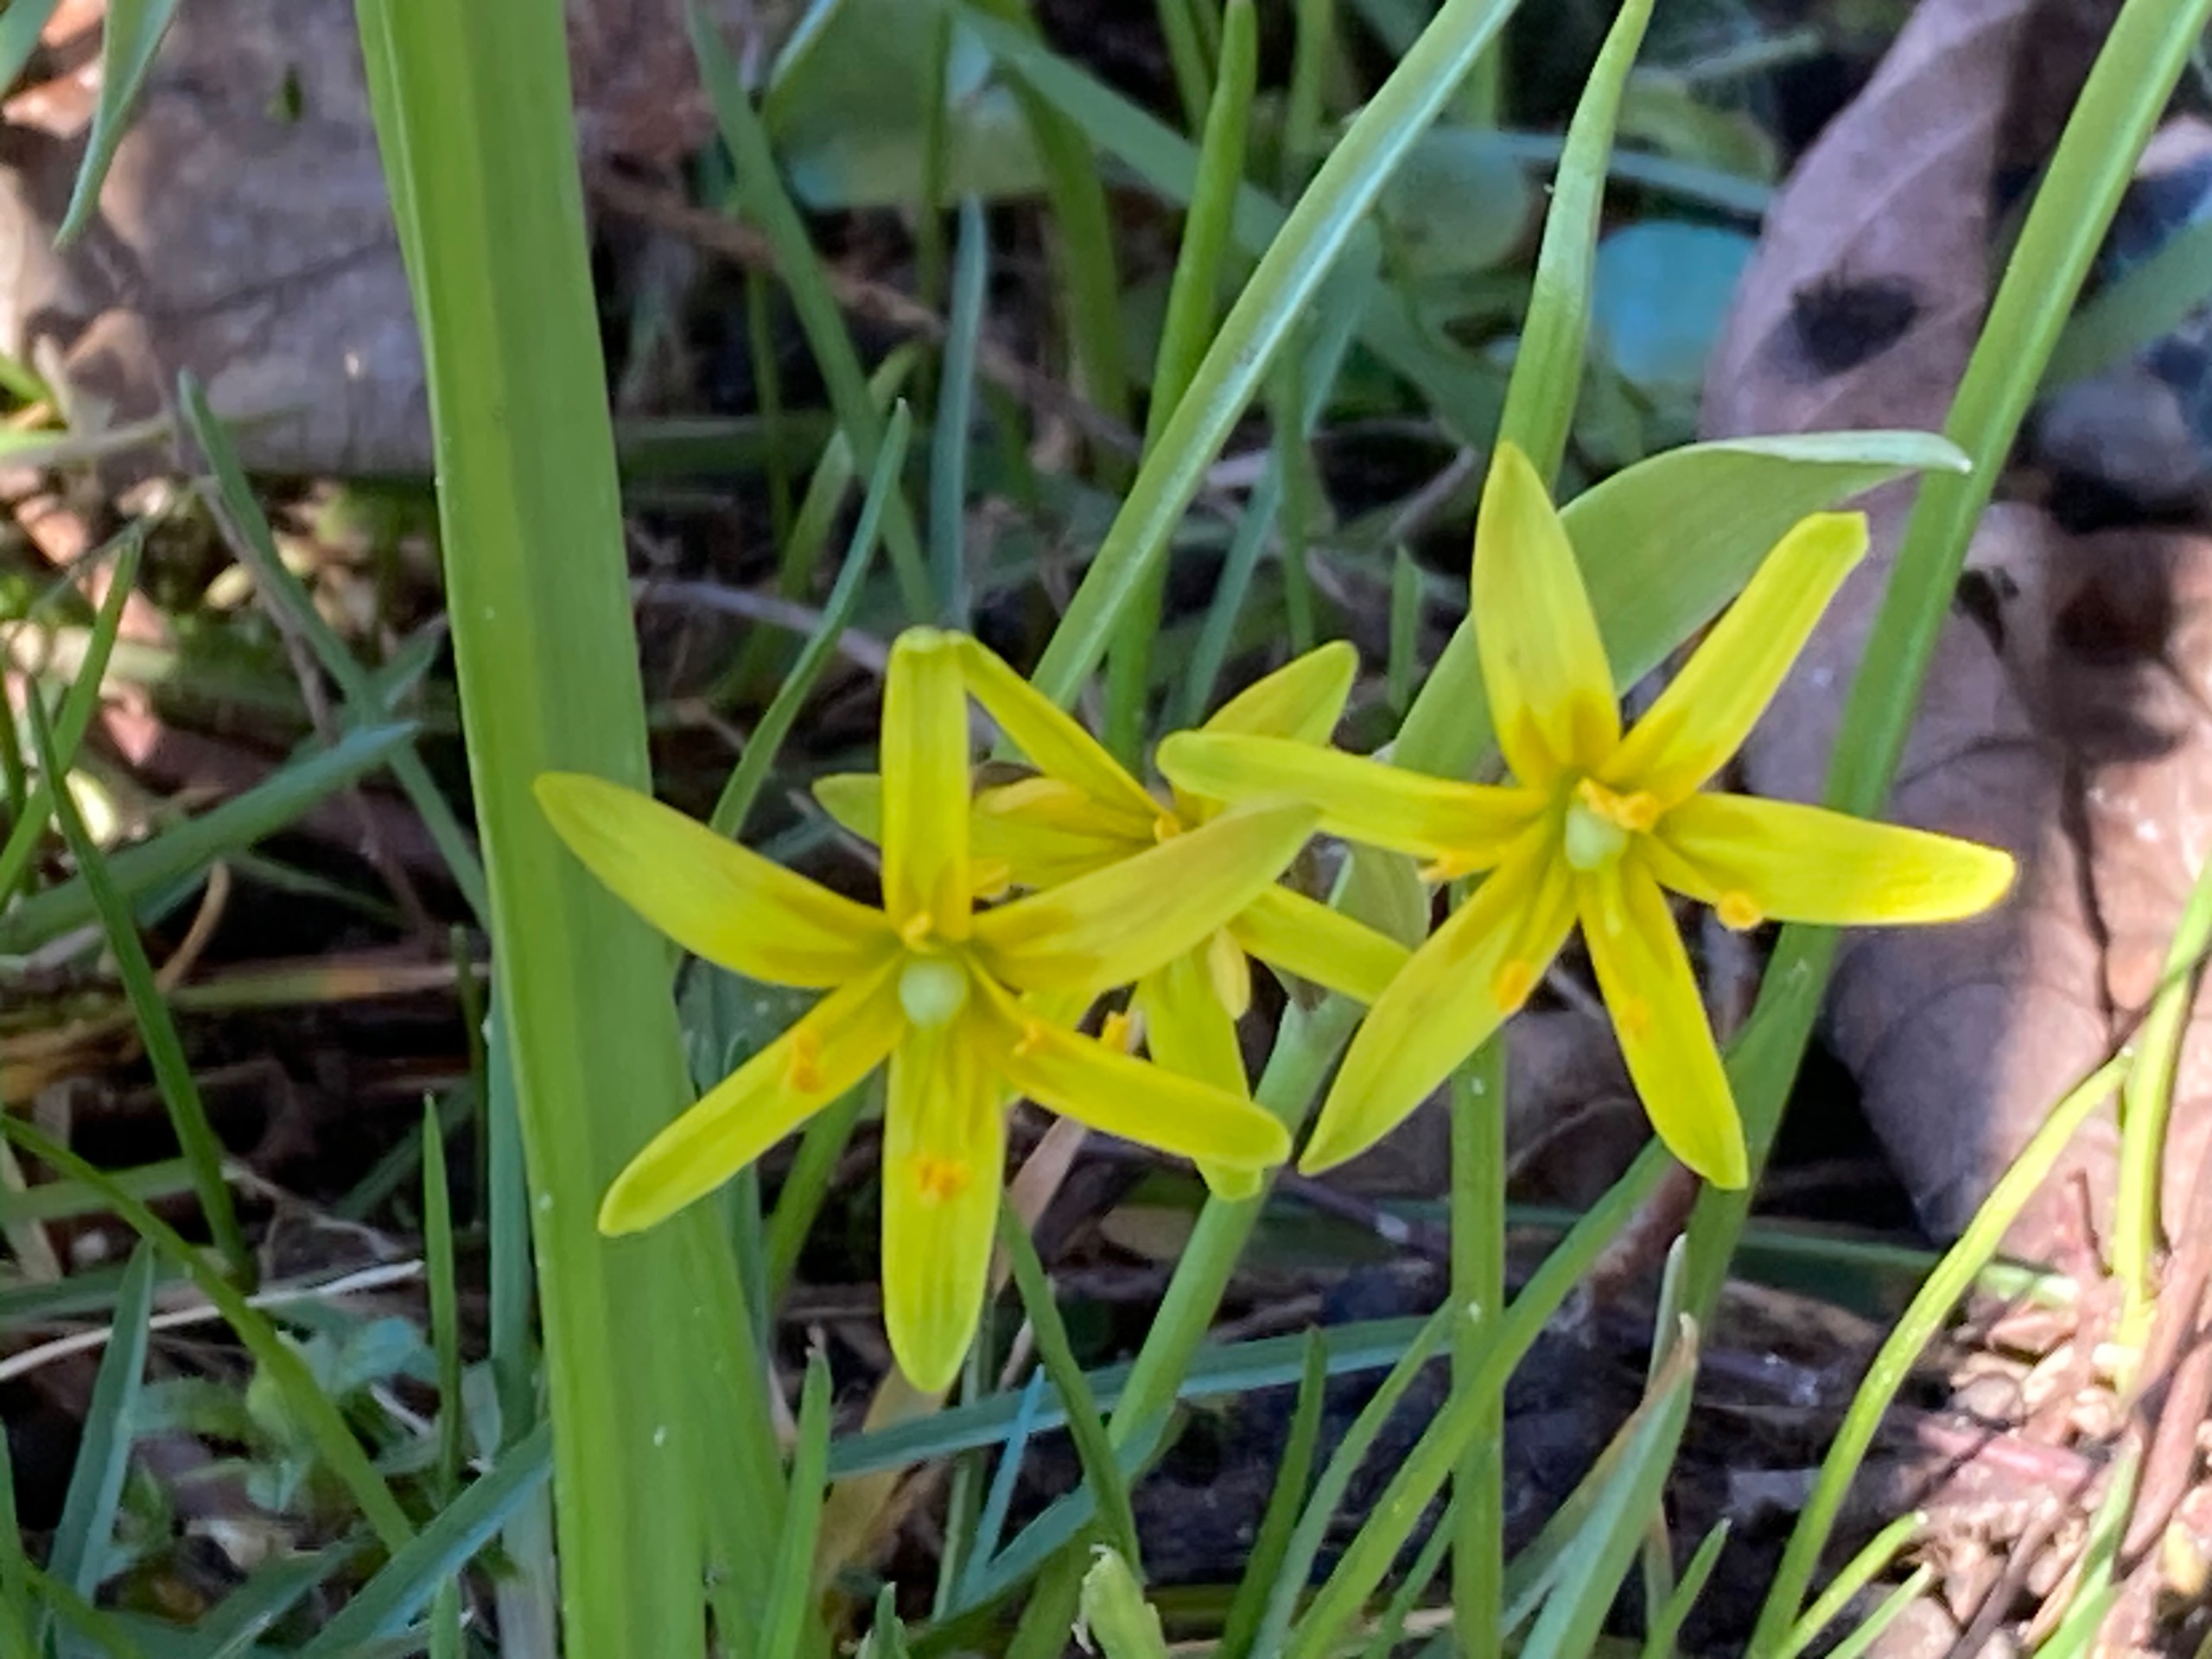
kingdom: Plantae
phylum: Tracheophyta
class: Liliopsida
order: Liliales
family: Liliaceae
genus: Gagea
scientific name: Gagea lutea
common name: Almindelig guldstjerne
